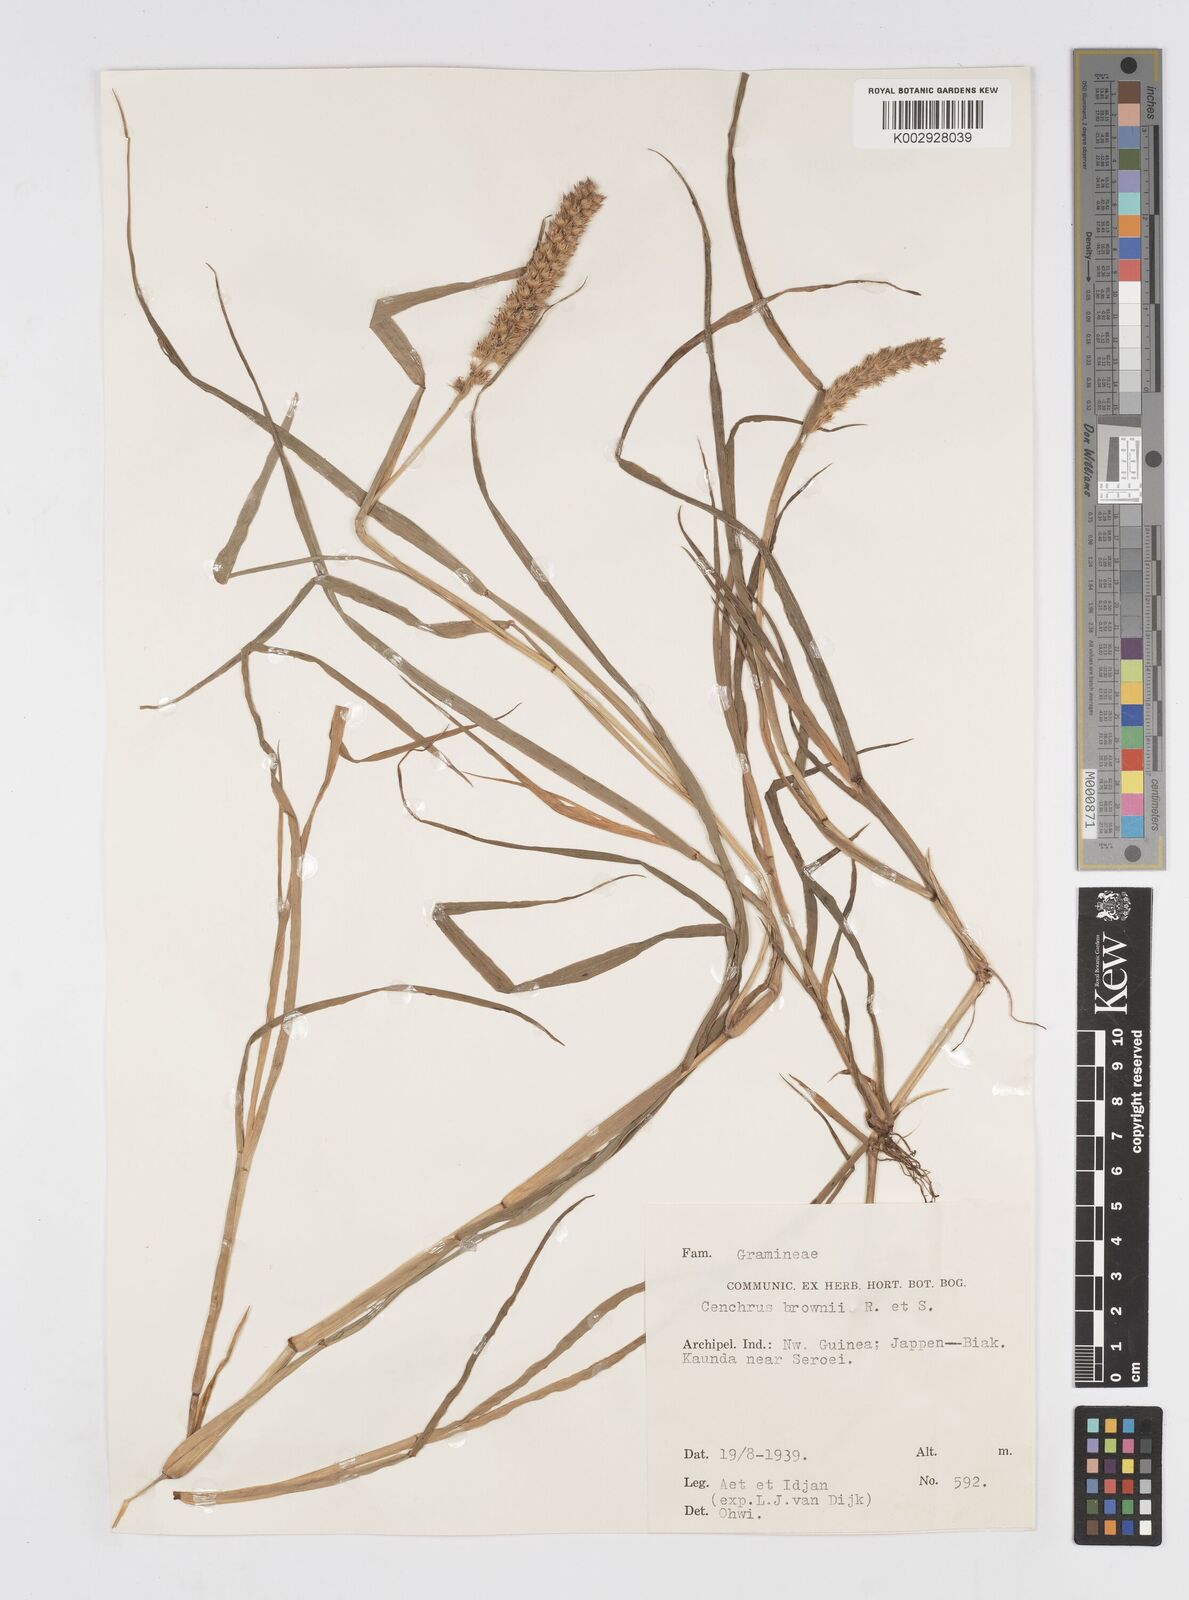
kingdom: Plantae
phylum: Tracheophyta
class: Liliopsida
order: Poales
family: Poaceae
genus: Cenchrus
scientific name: Cenchrus brownii
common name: Slim-bristle sandbur
